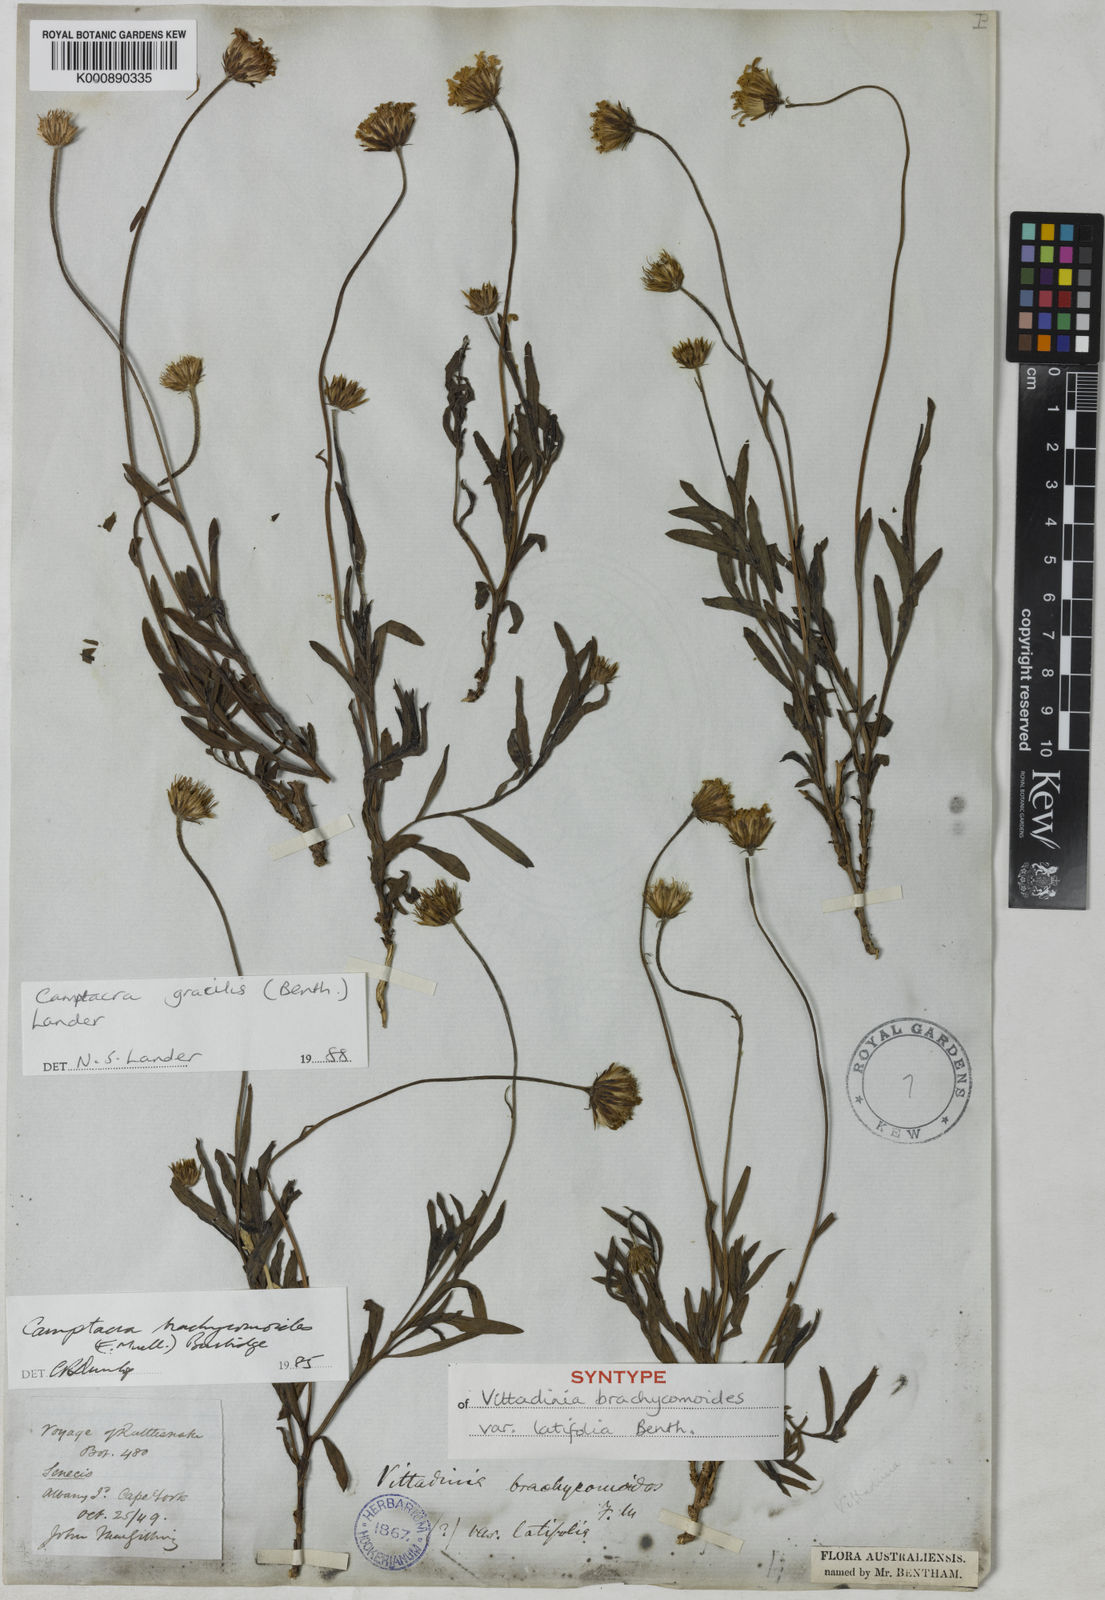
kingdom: Plantae
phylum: Tracheophyta
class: Magnoliopsida
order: Asterales
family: Asteraceae
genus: Camptacra
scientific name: Camptacra gracilis
